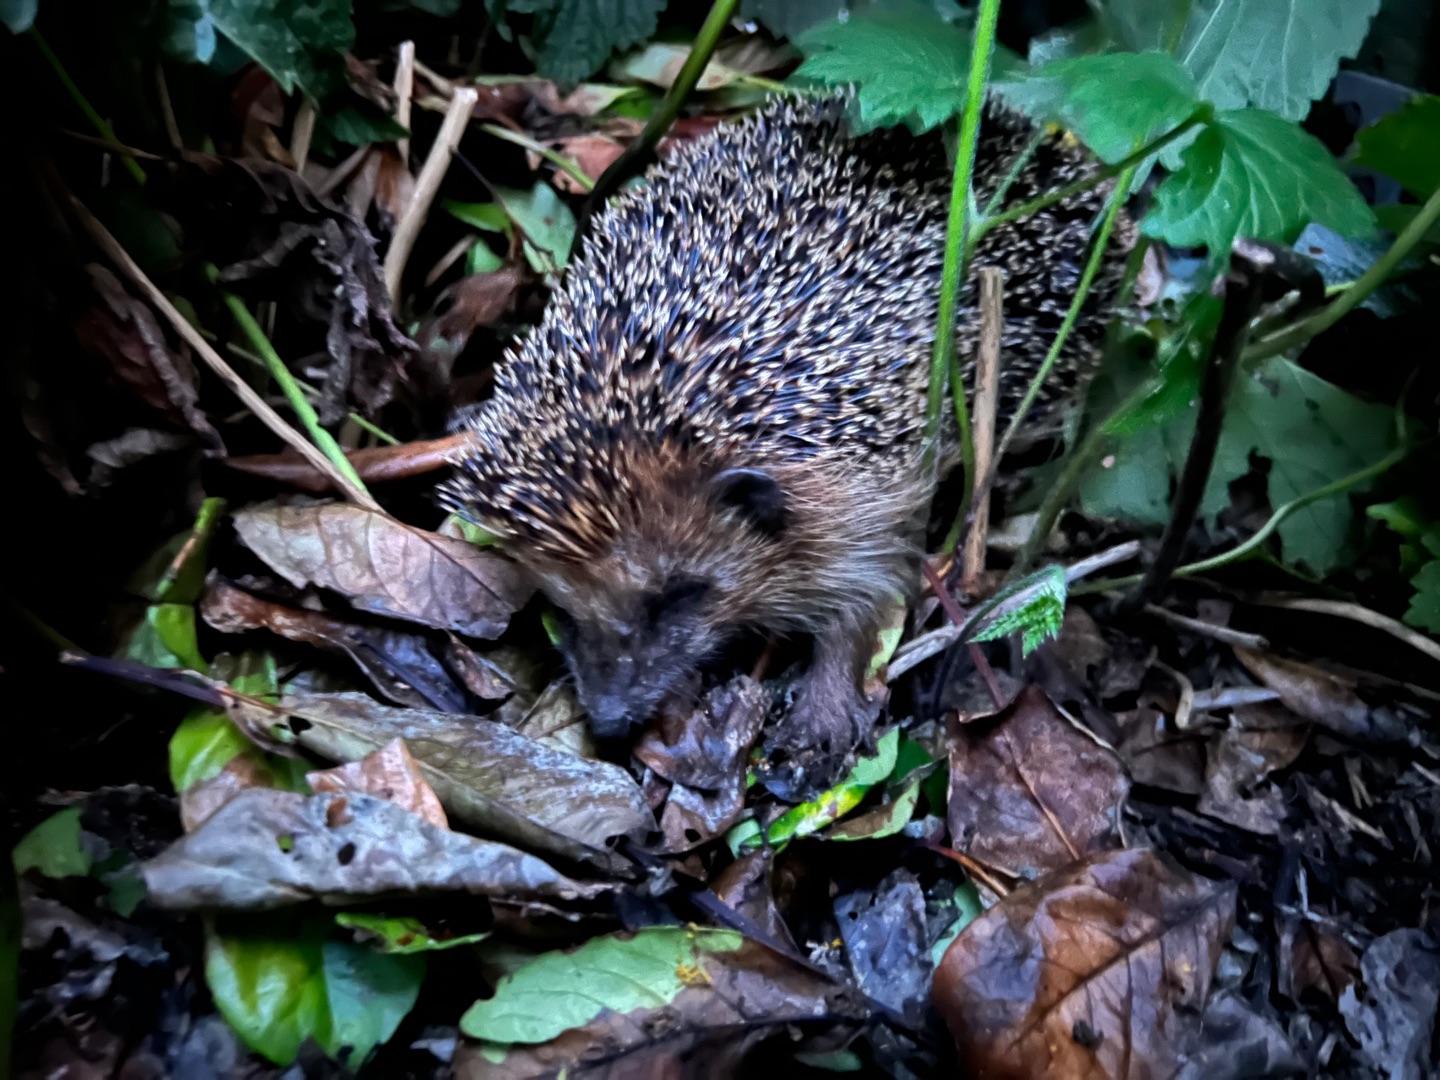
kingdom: Animalia
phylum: Chordata
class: Mammalia
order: Erinaceomorpha
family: Erinaceidae
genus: Erinaceus
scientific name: Erinaceus europaeus
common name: Pindsvin
